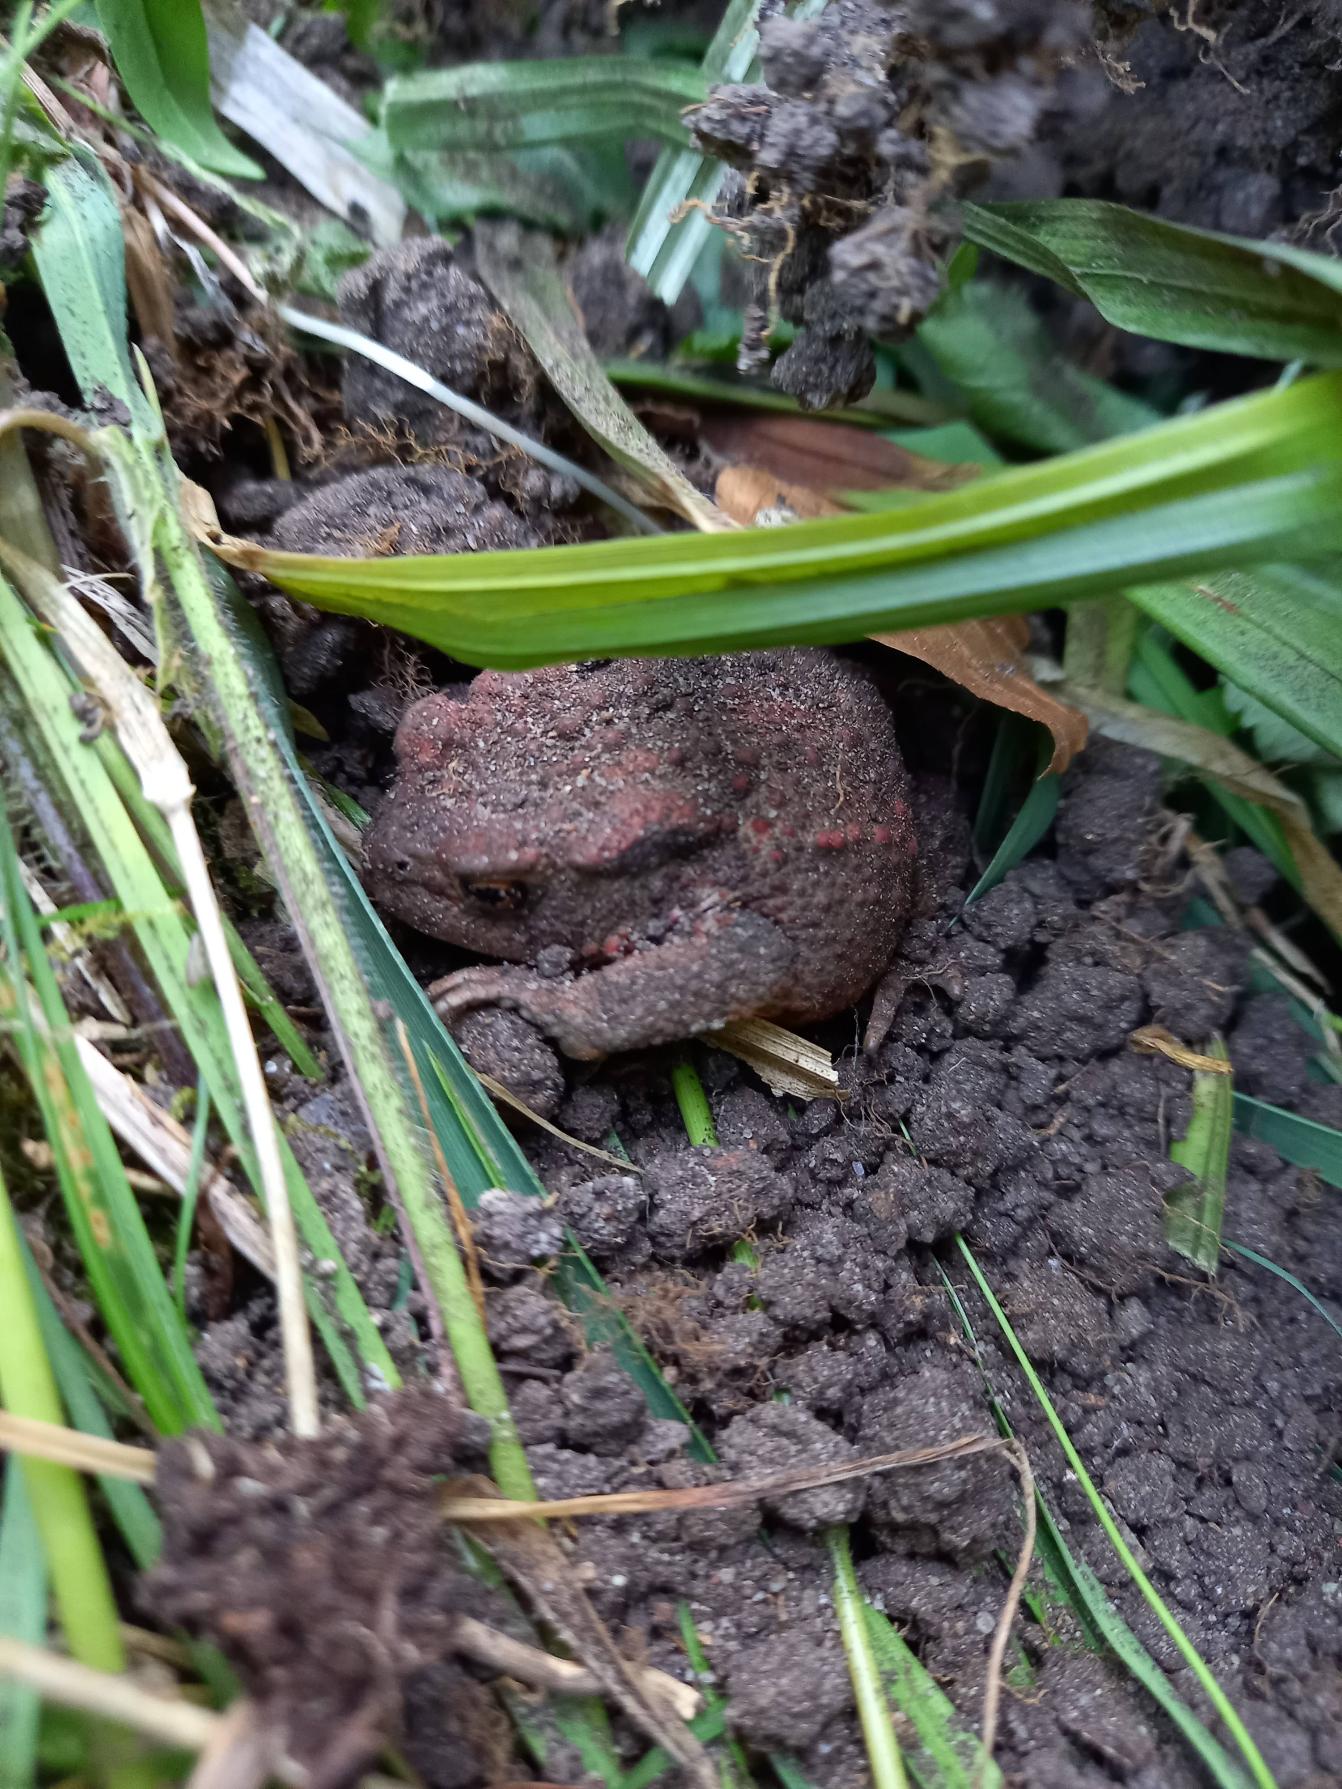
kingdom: Animalia
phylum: Chordata
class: Amphibia
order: Anura
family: Bufonidae
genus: Bufo
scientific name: Bufo bufo
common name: Skrubtudse
